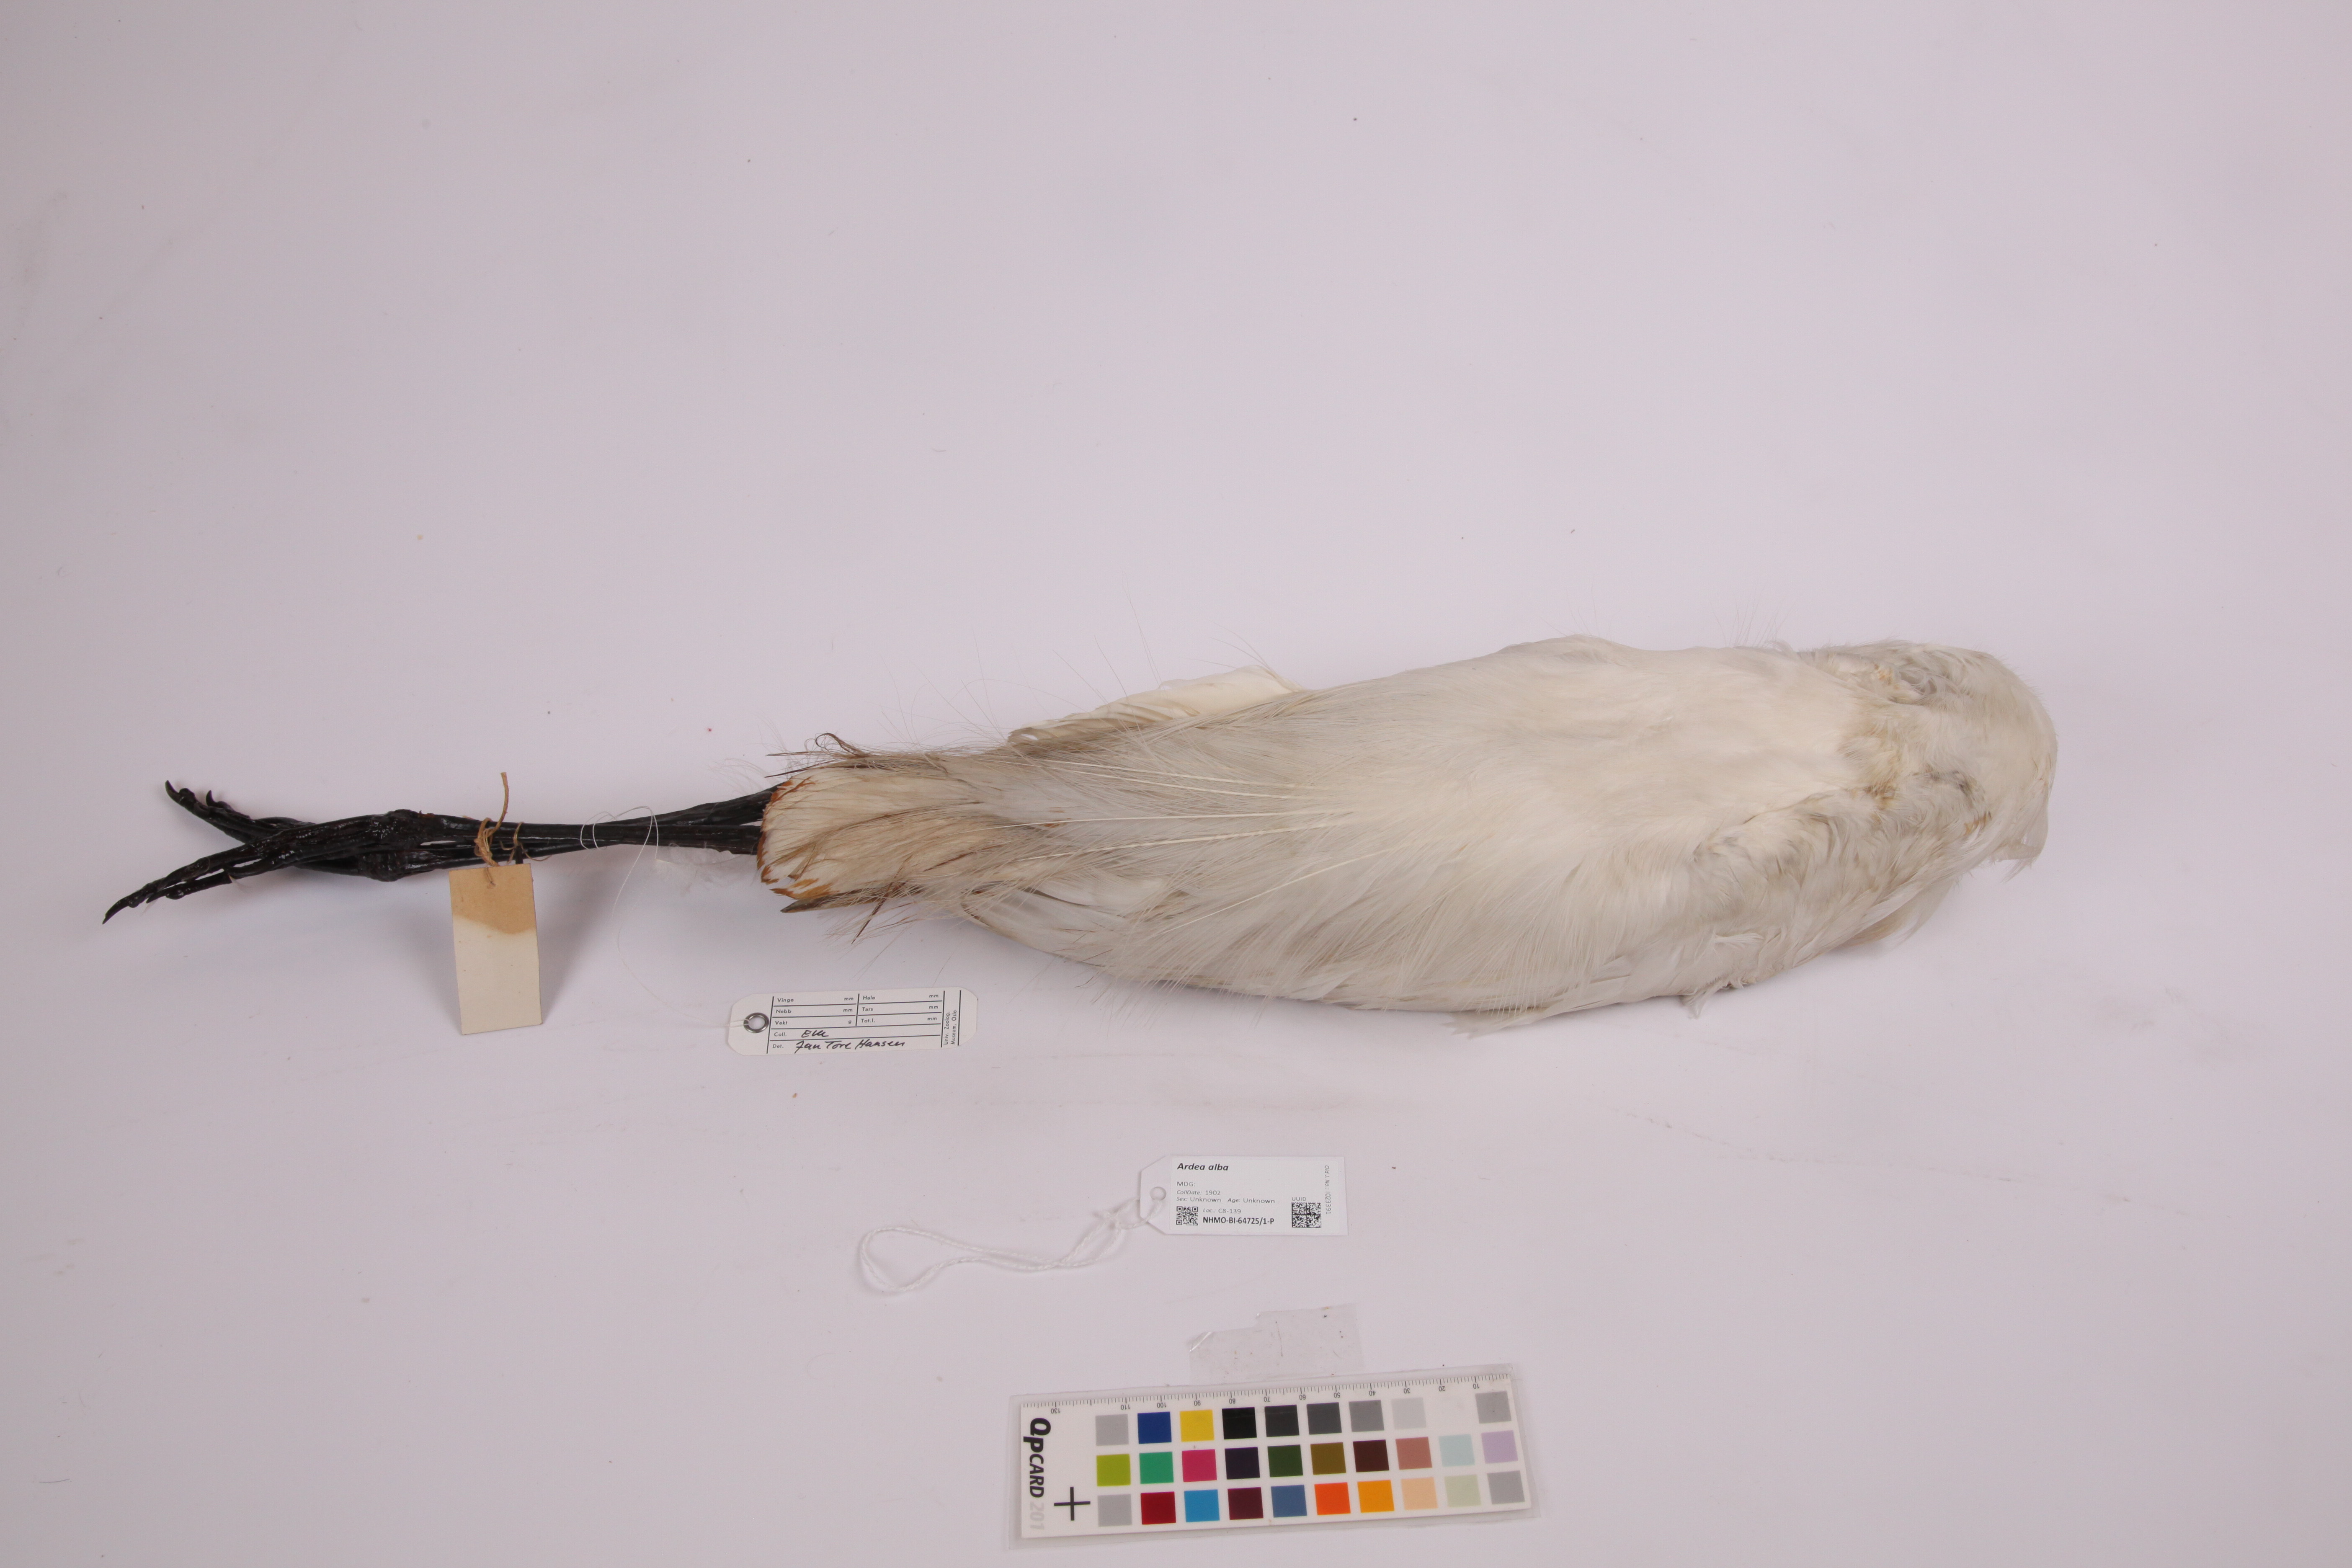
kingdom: Animalia
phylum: Chordata
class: Aves
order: Pelecaniformes
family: Ardeidae
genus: Ardea
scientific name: Ardea alba
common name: Great egret
